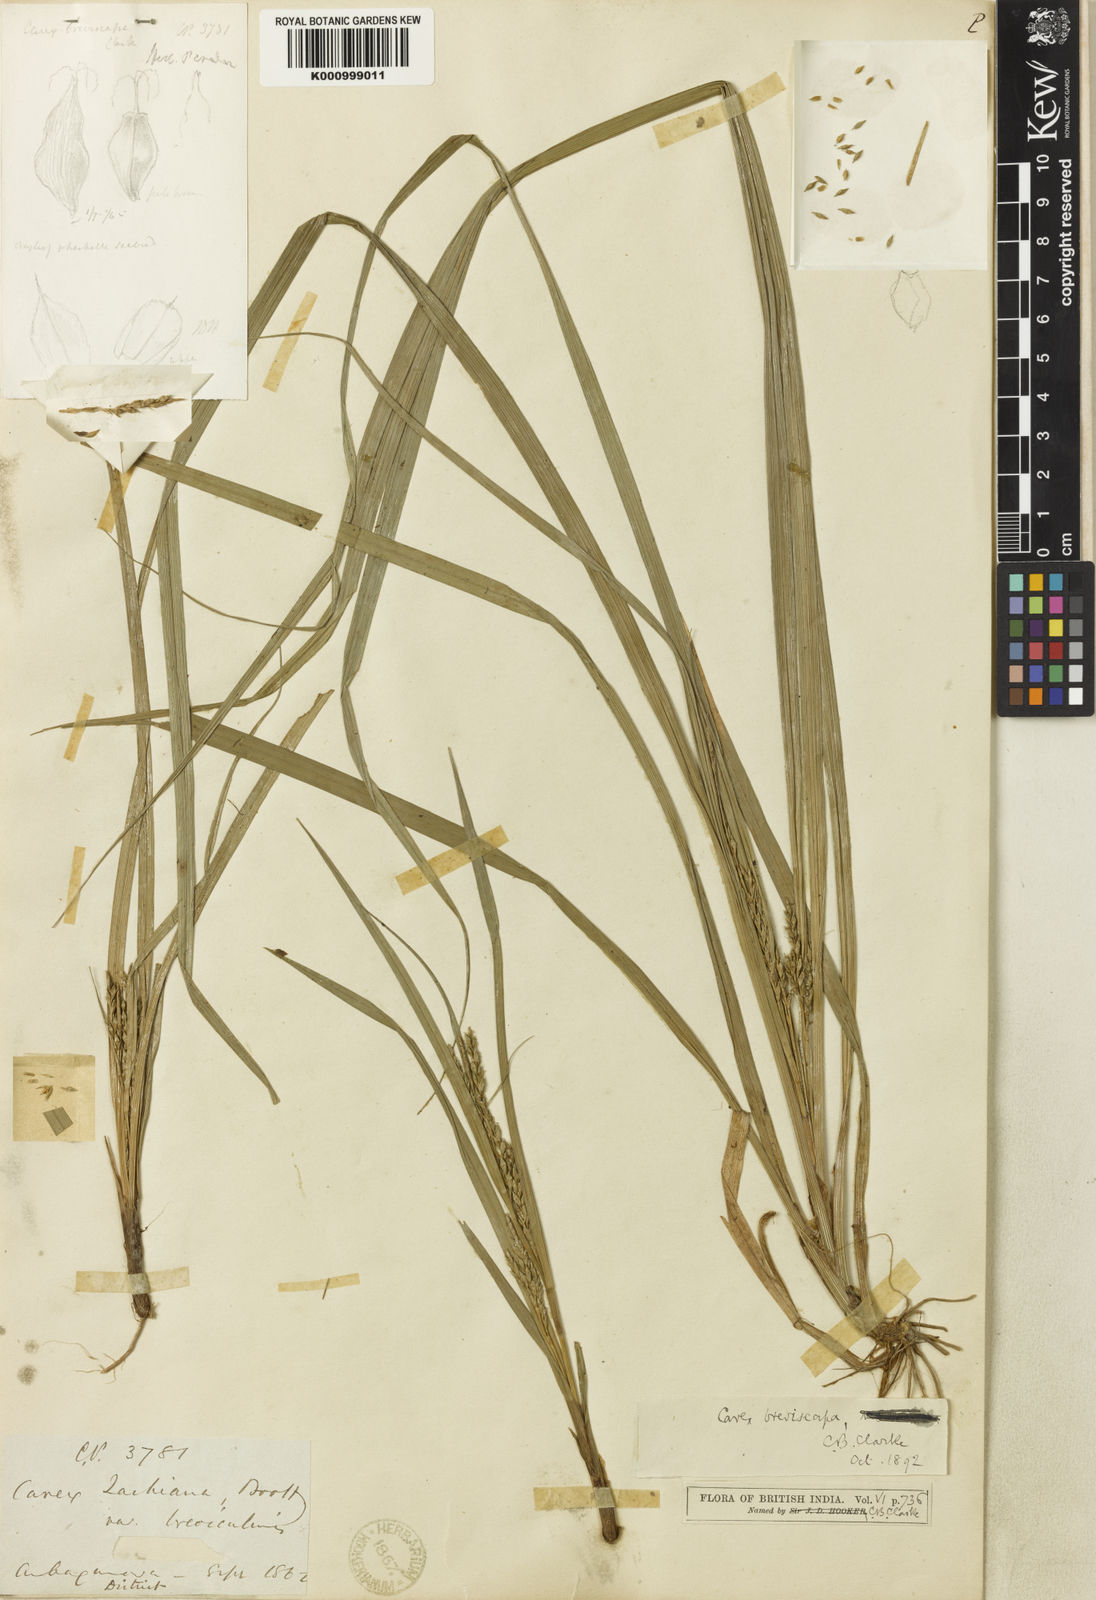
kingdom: Plantae
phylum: Tracheophyta
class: Liliopsida
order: Poales
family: Cyperaceae
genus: Carex
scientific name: Carex breviscapa
